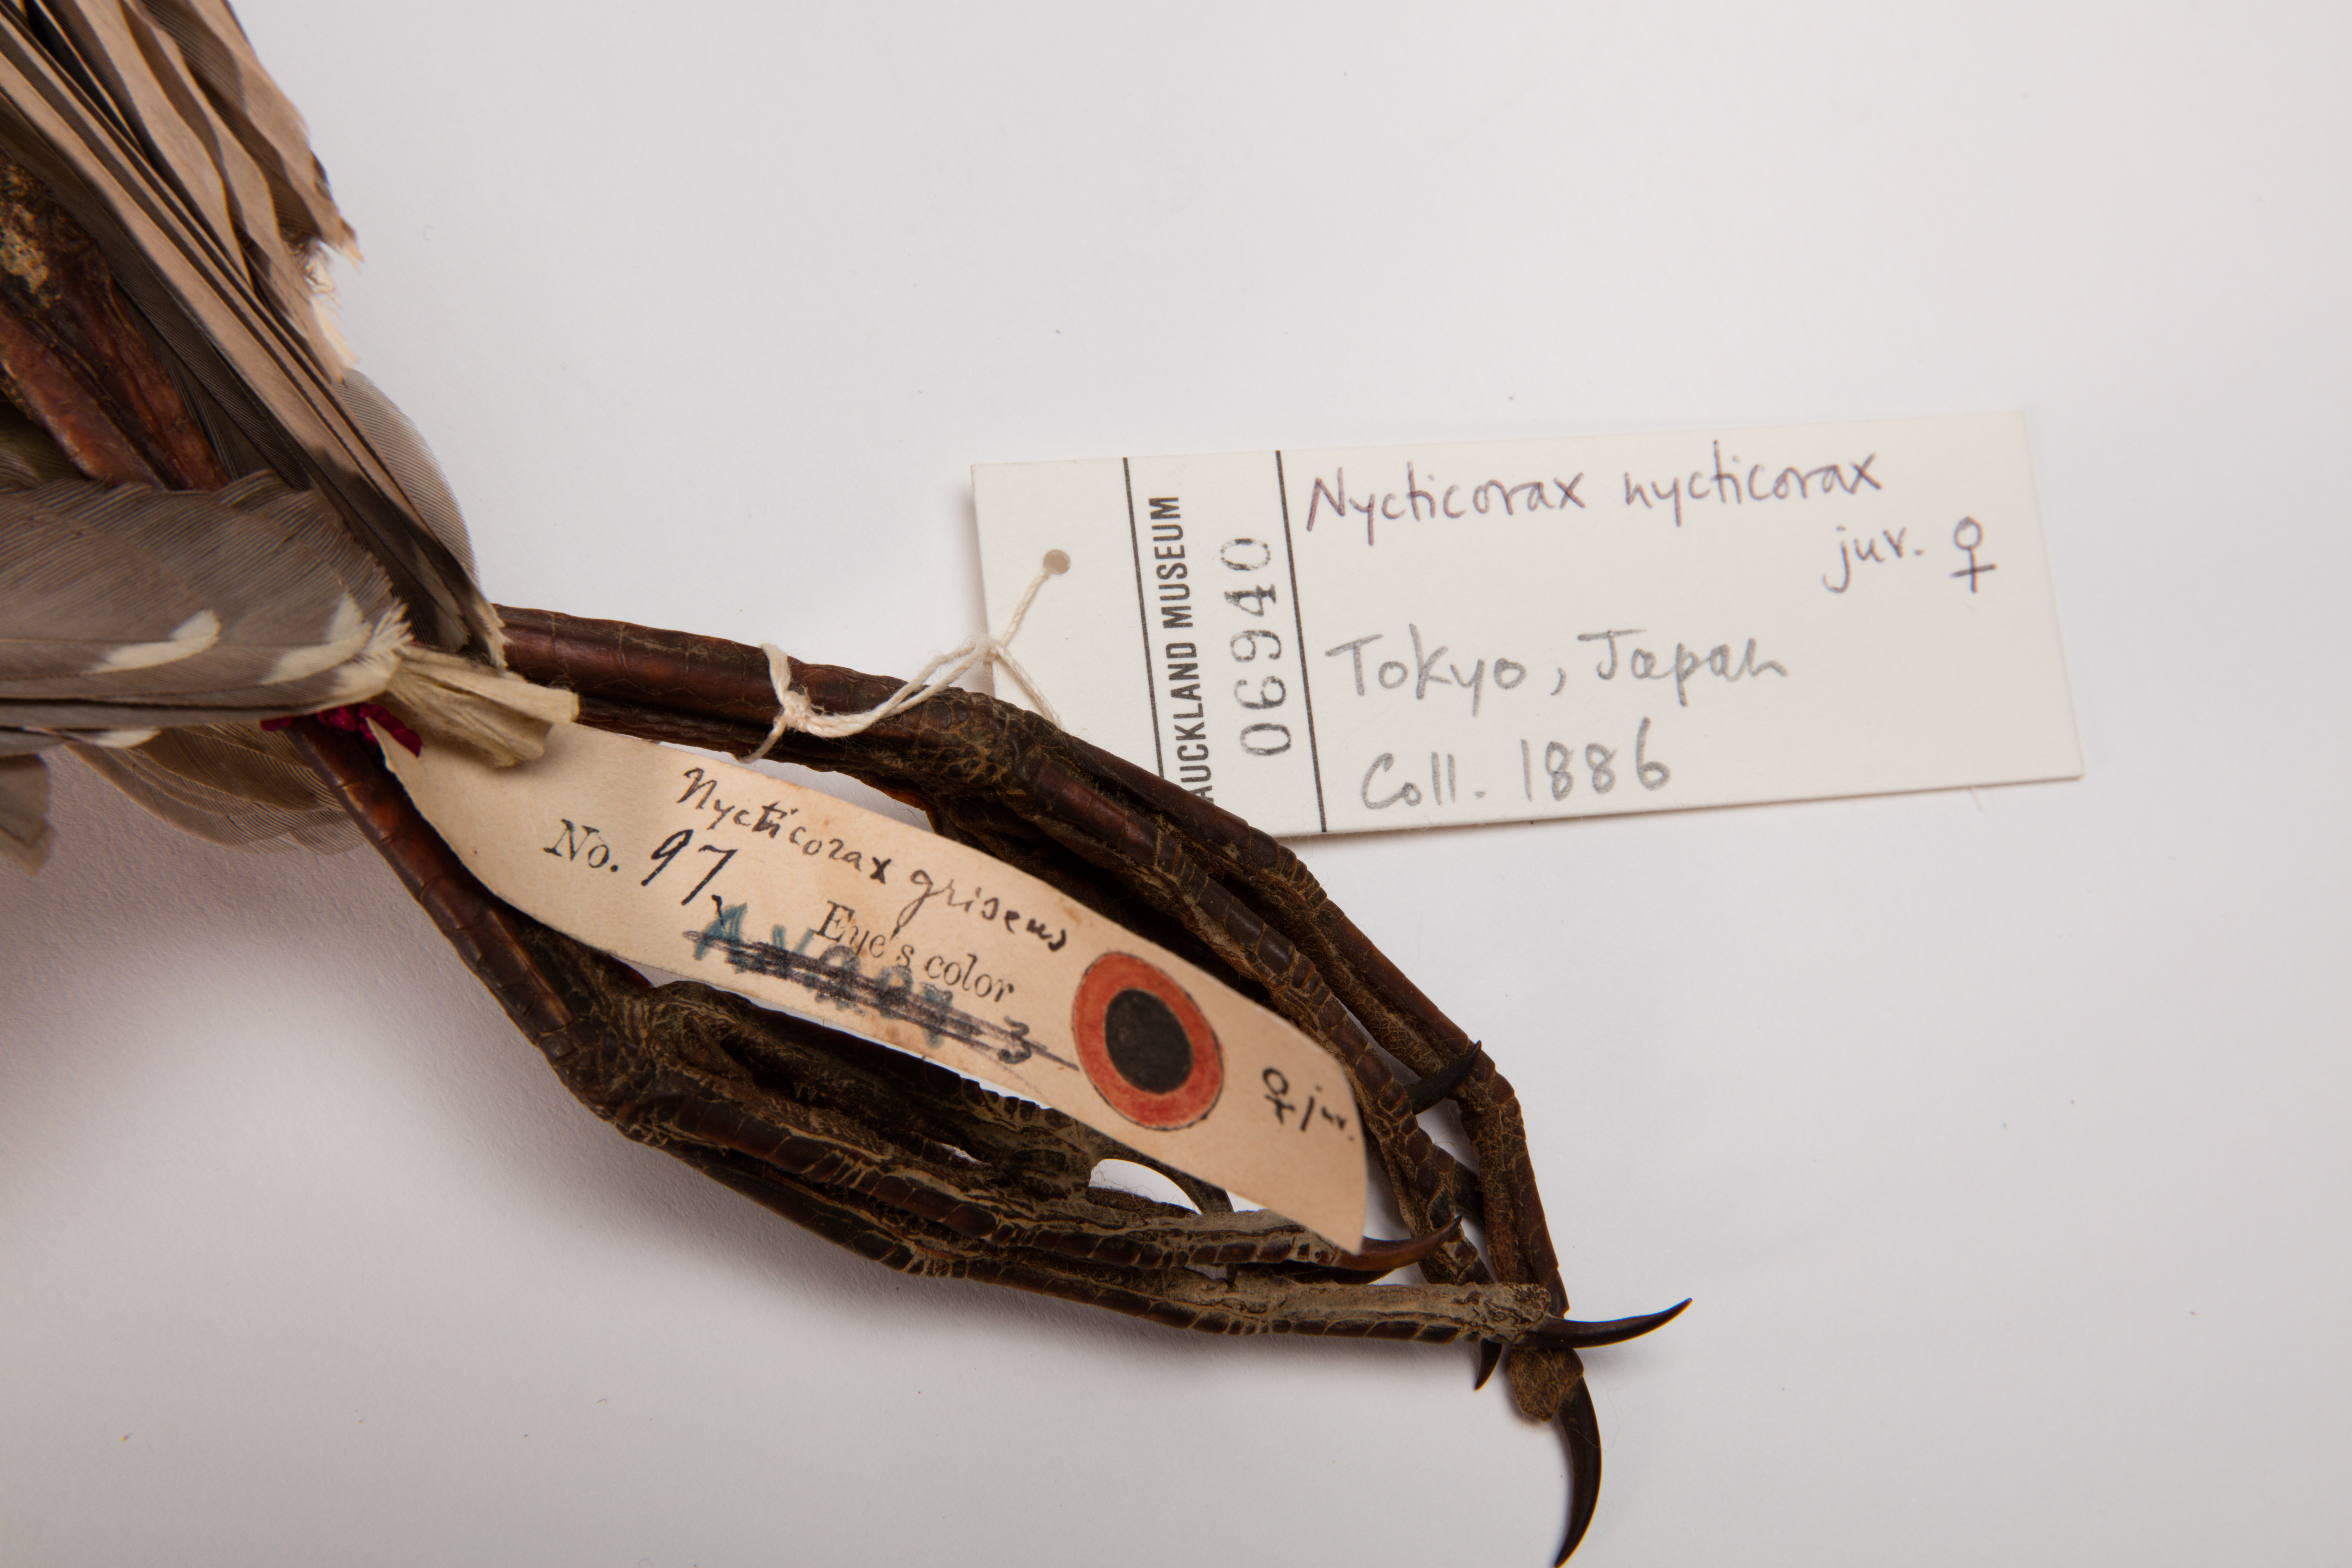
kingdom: Animalia
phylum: Chordata
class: Aves
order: Pelecaniformes
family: Ardeidae
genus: Nycticorax
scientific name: Nycticorax nycticorax
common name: Black-crowned night heron
